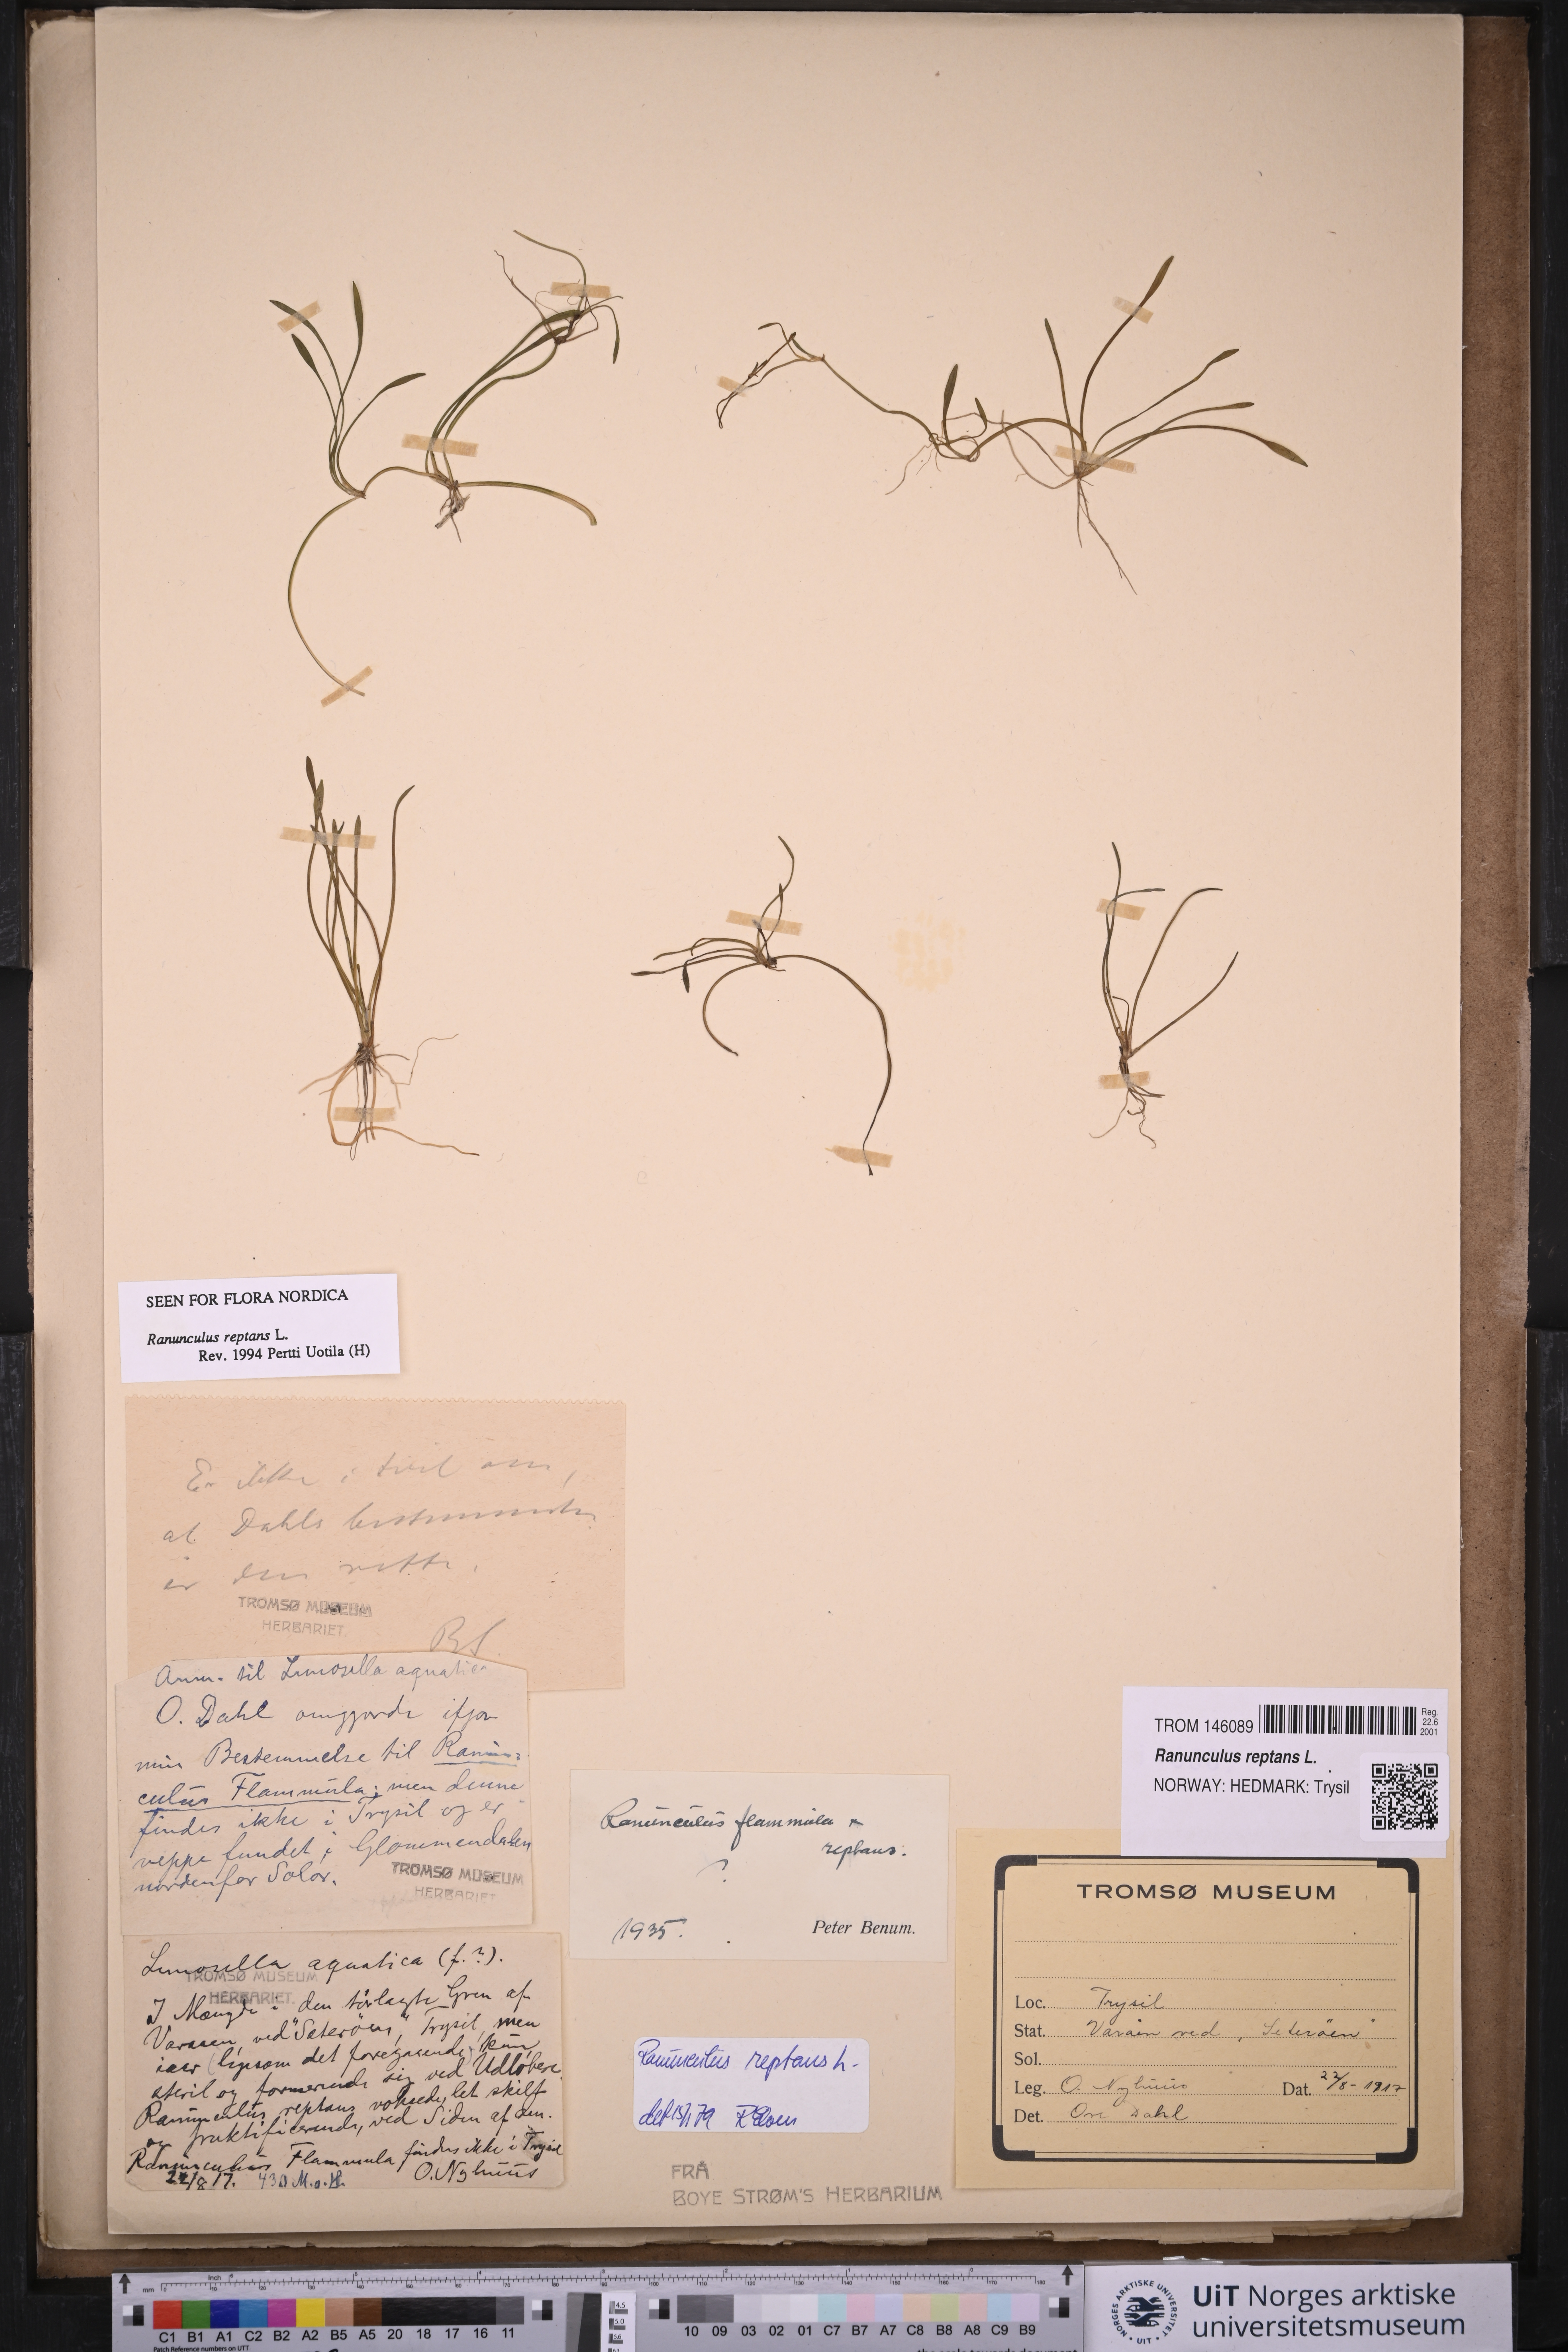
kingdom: Plantae
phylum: Tracheophyta
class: Magnoliopsida
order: Ranunculales
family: Ranunculaceae
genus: Ranunculus
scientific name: Ranunculus reptans
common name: Creeping spearwort
